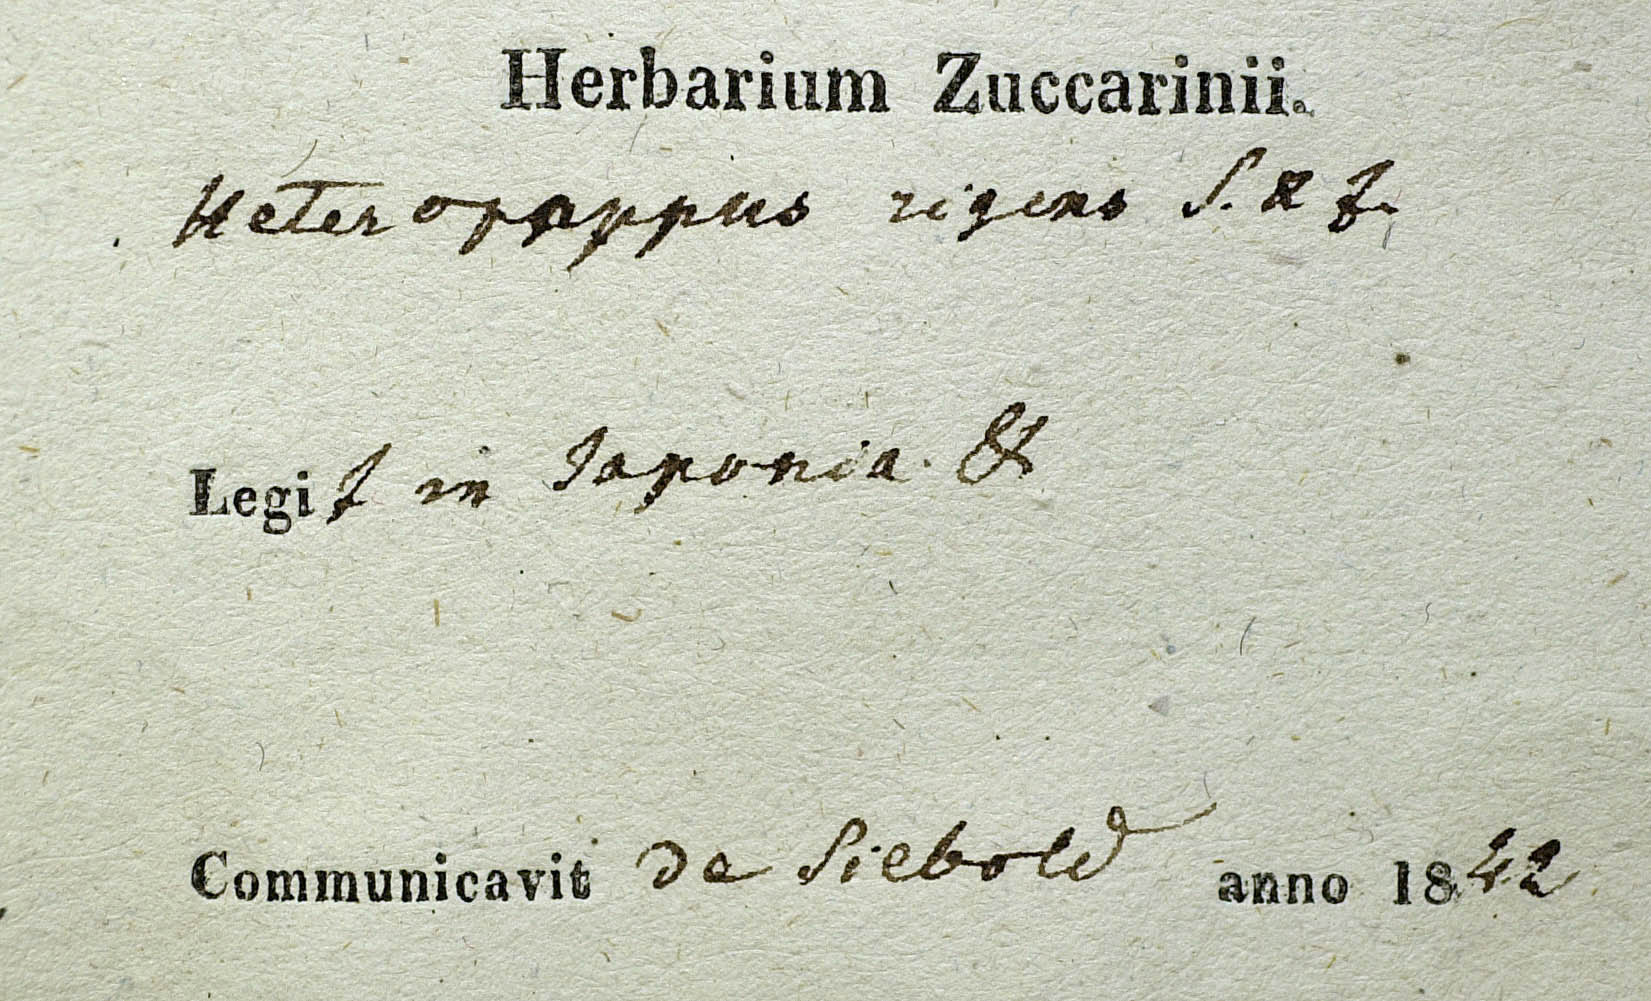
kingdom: Plantae
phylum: Tracheophyta
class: Magnoliopsida
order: Asterales
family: Asteraceae
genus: Heteropappus
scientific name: Heteropappus hispidus
